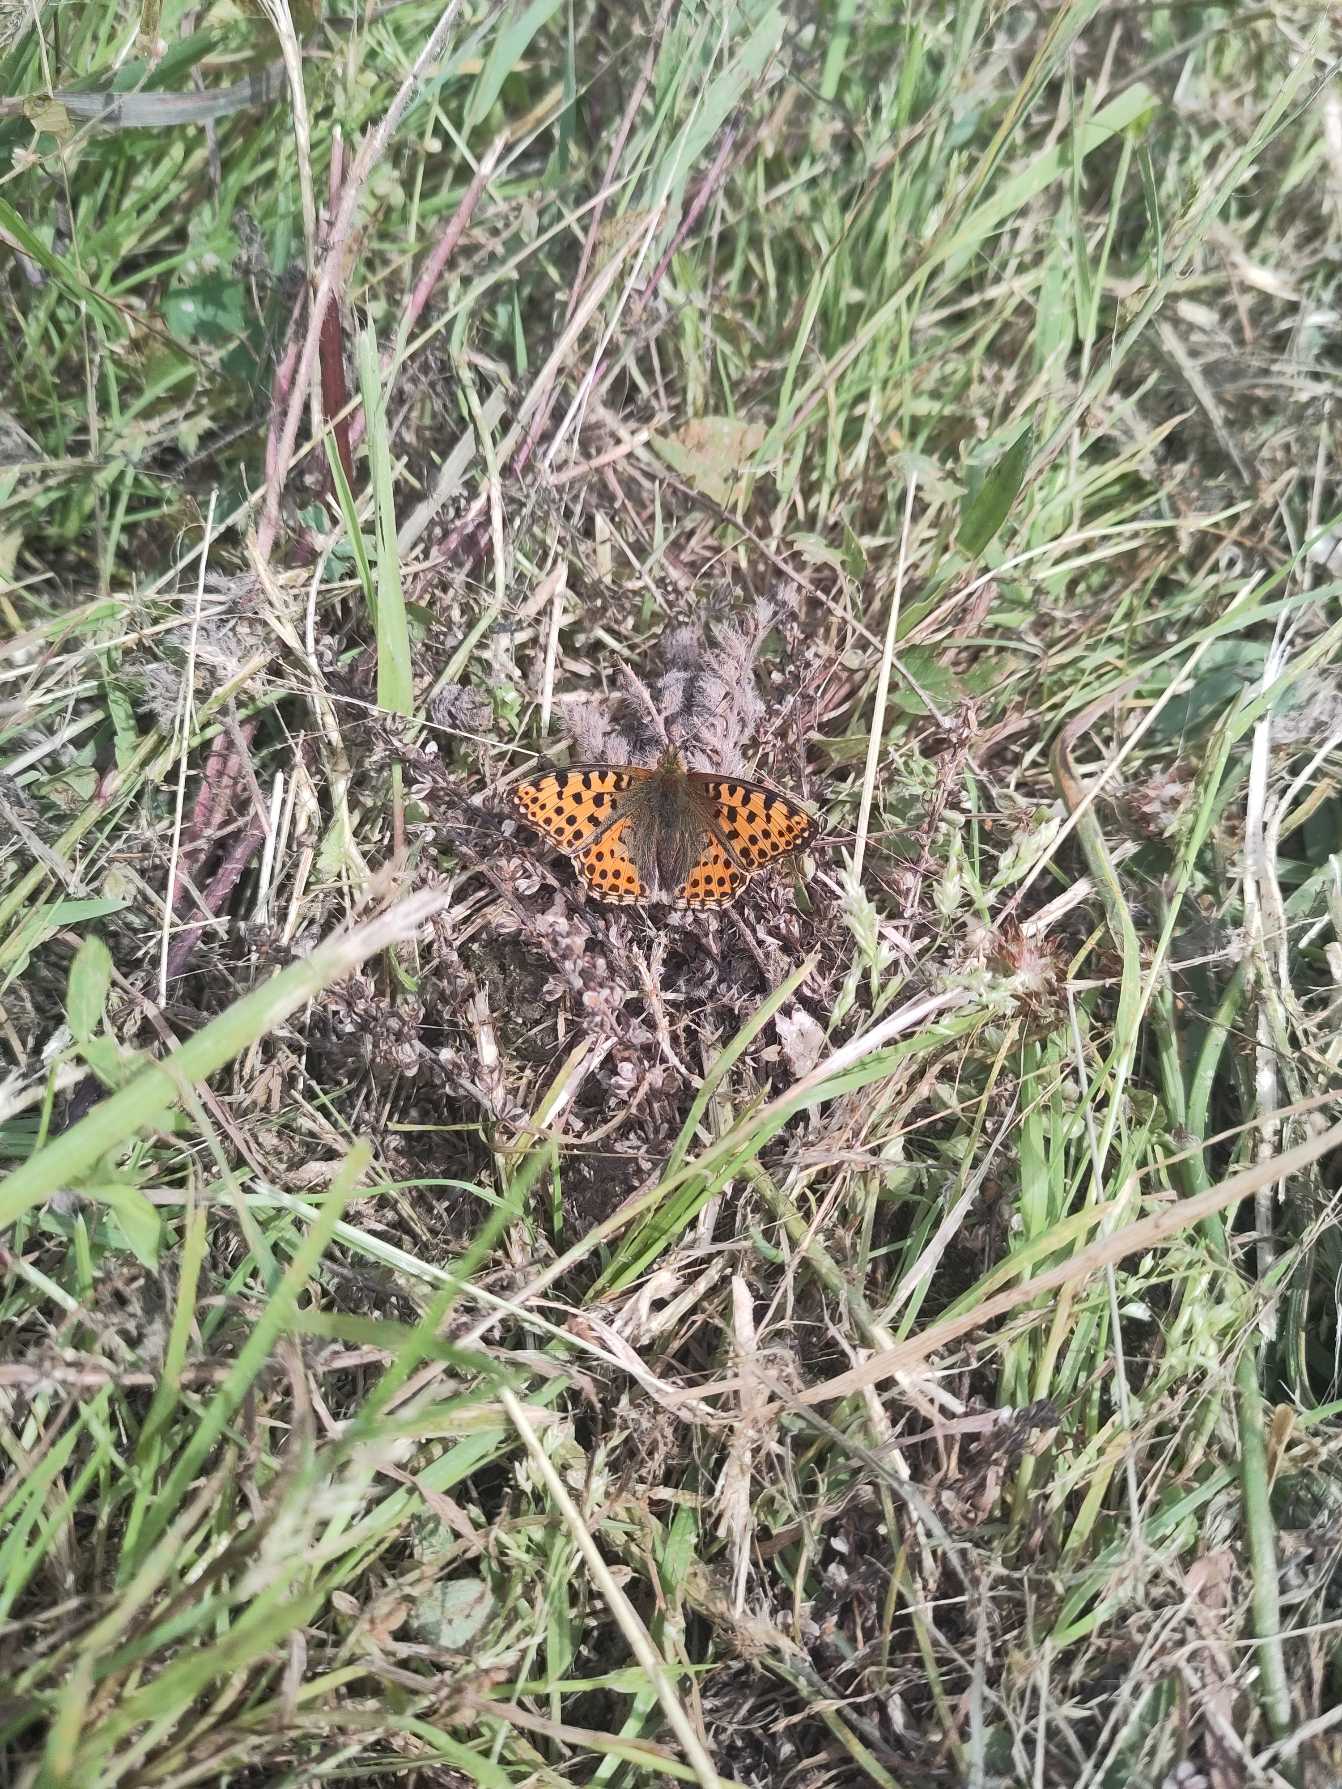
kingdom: Animalia
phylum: Arthropoda
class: Insecta
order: Lepidoptera
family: Nymphalidae
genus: Issoria
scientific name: Issoria lathonia
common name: Storplettet perlemorsommerfugl
